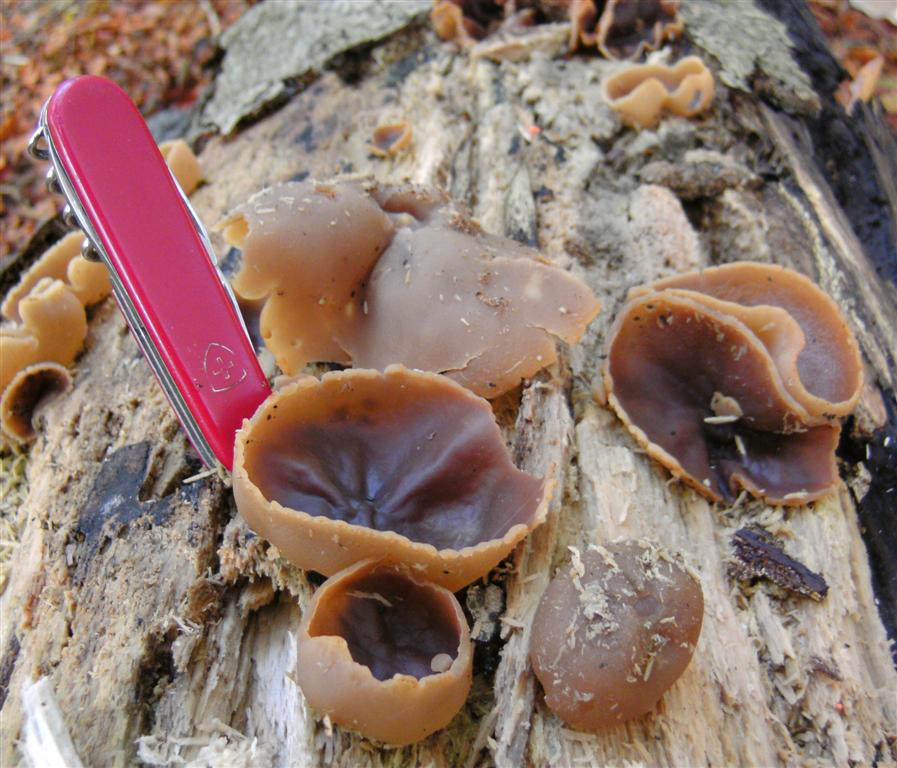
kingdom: Fungi
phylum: Ascomycota
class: Pezizomycetes
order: Pezizales
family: Pezizaceae
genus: Peziza
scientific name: Peziza varia
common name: Ved-bægersvamp
